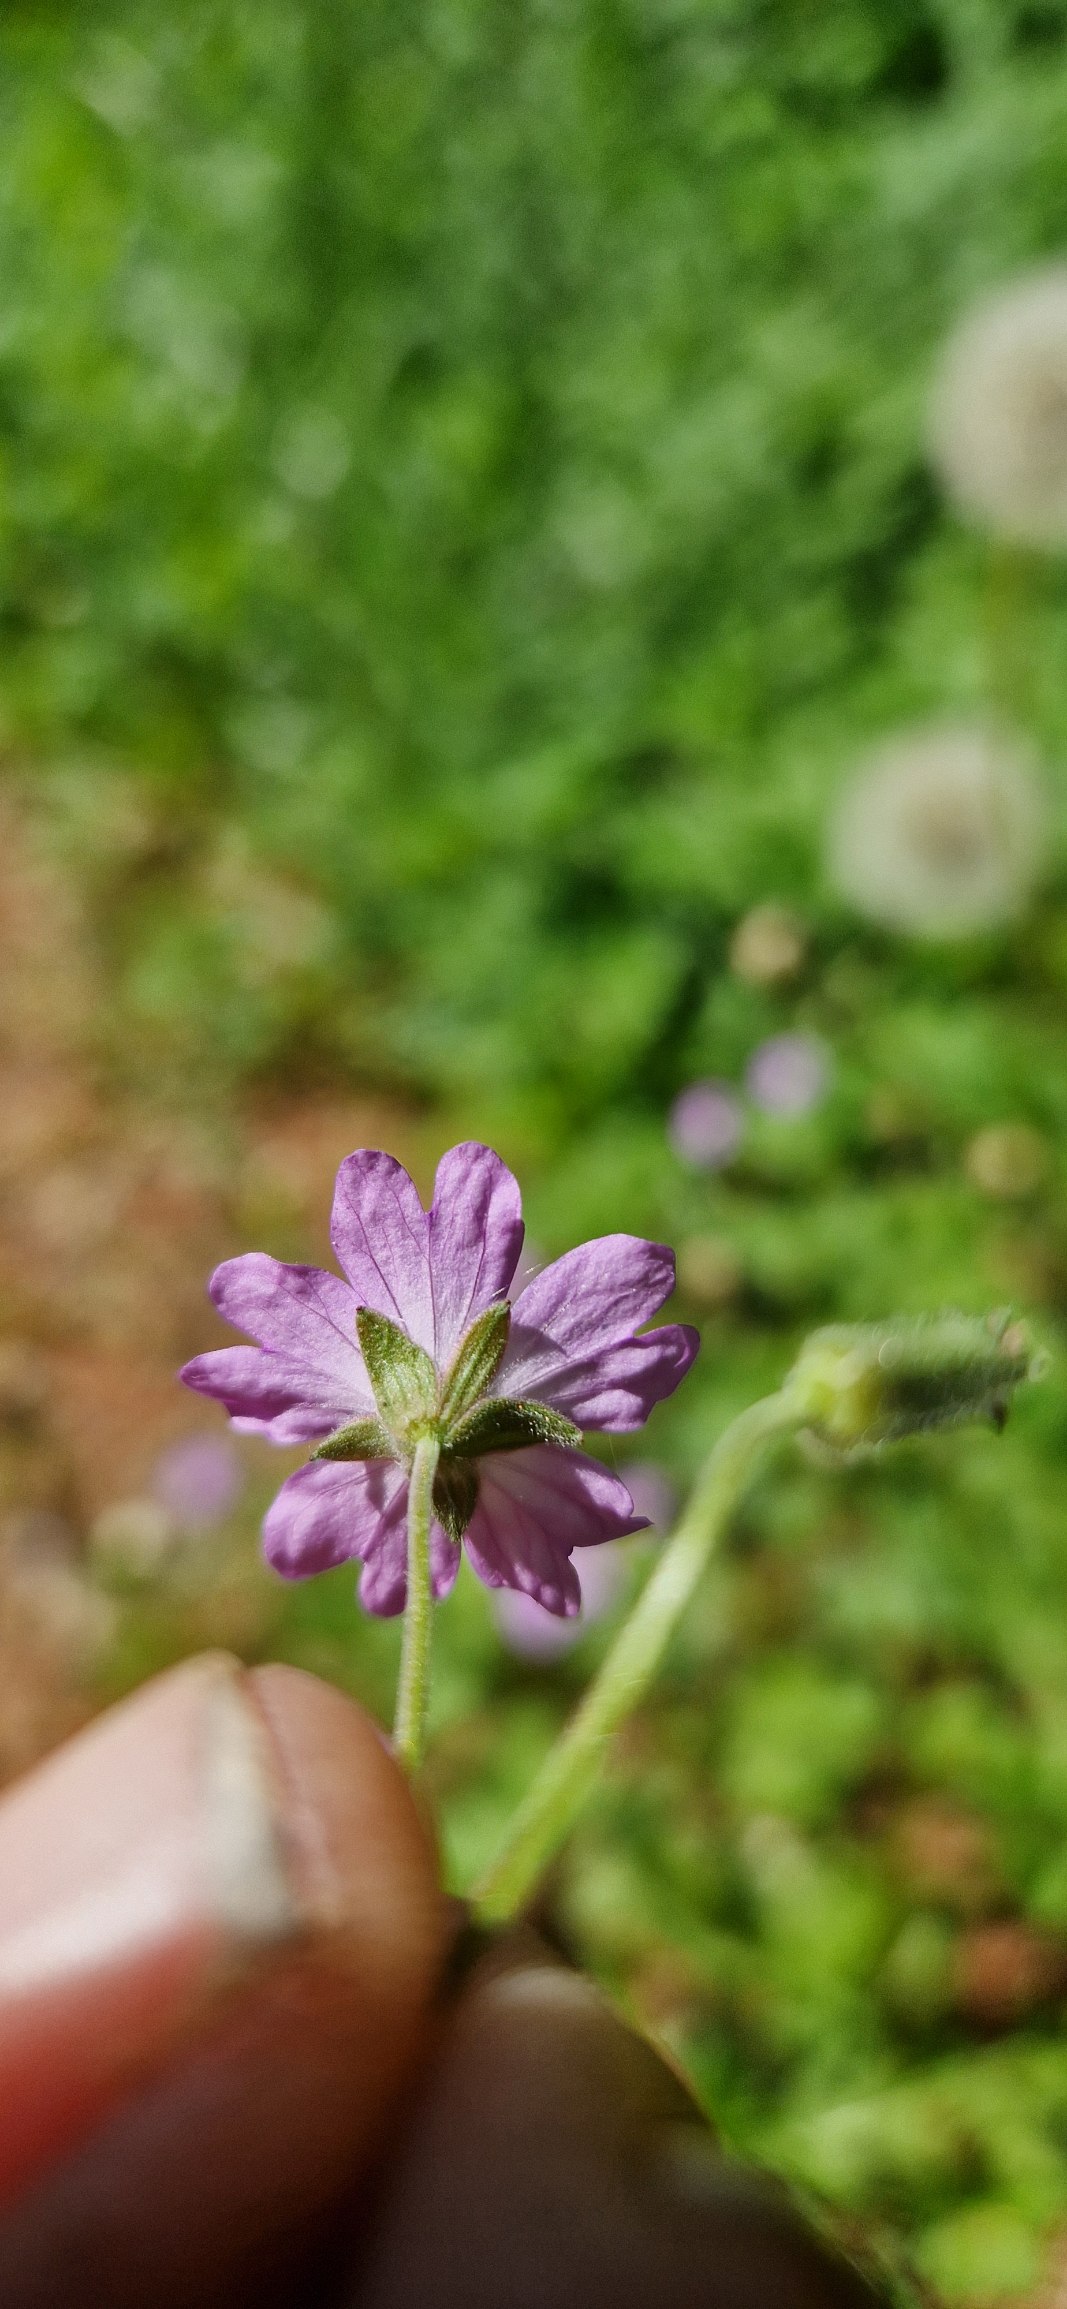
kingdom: Plantae
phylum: Tracheophyta
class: Magnoliopsida
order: Geraniales
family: Geraniaceae
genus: Geranium
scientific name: Geranium pyrenaicum
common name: Pyrenæisk storkenæb
